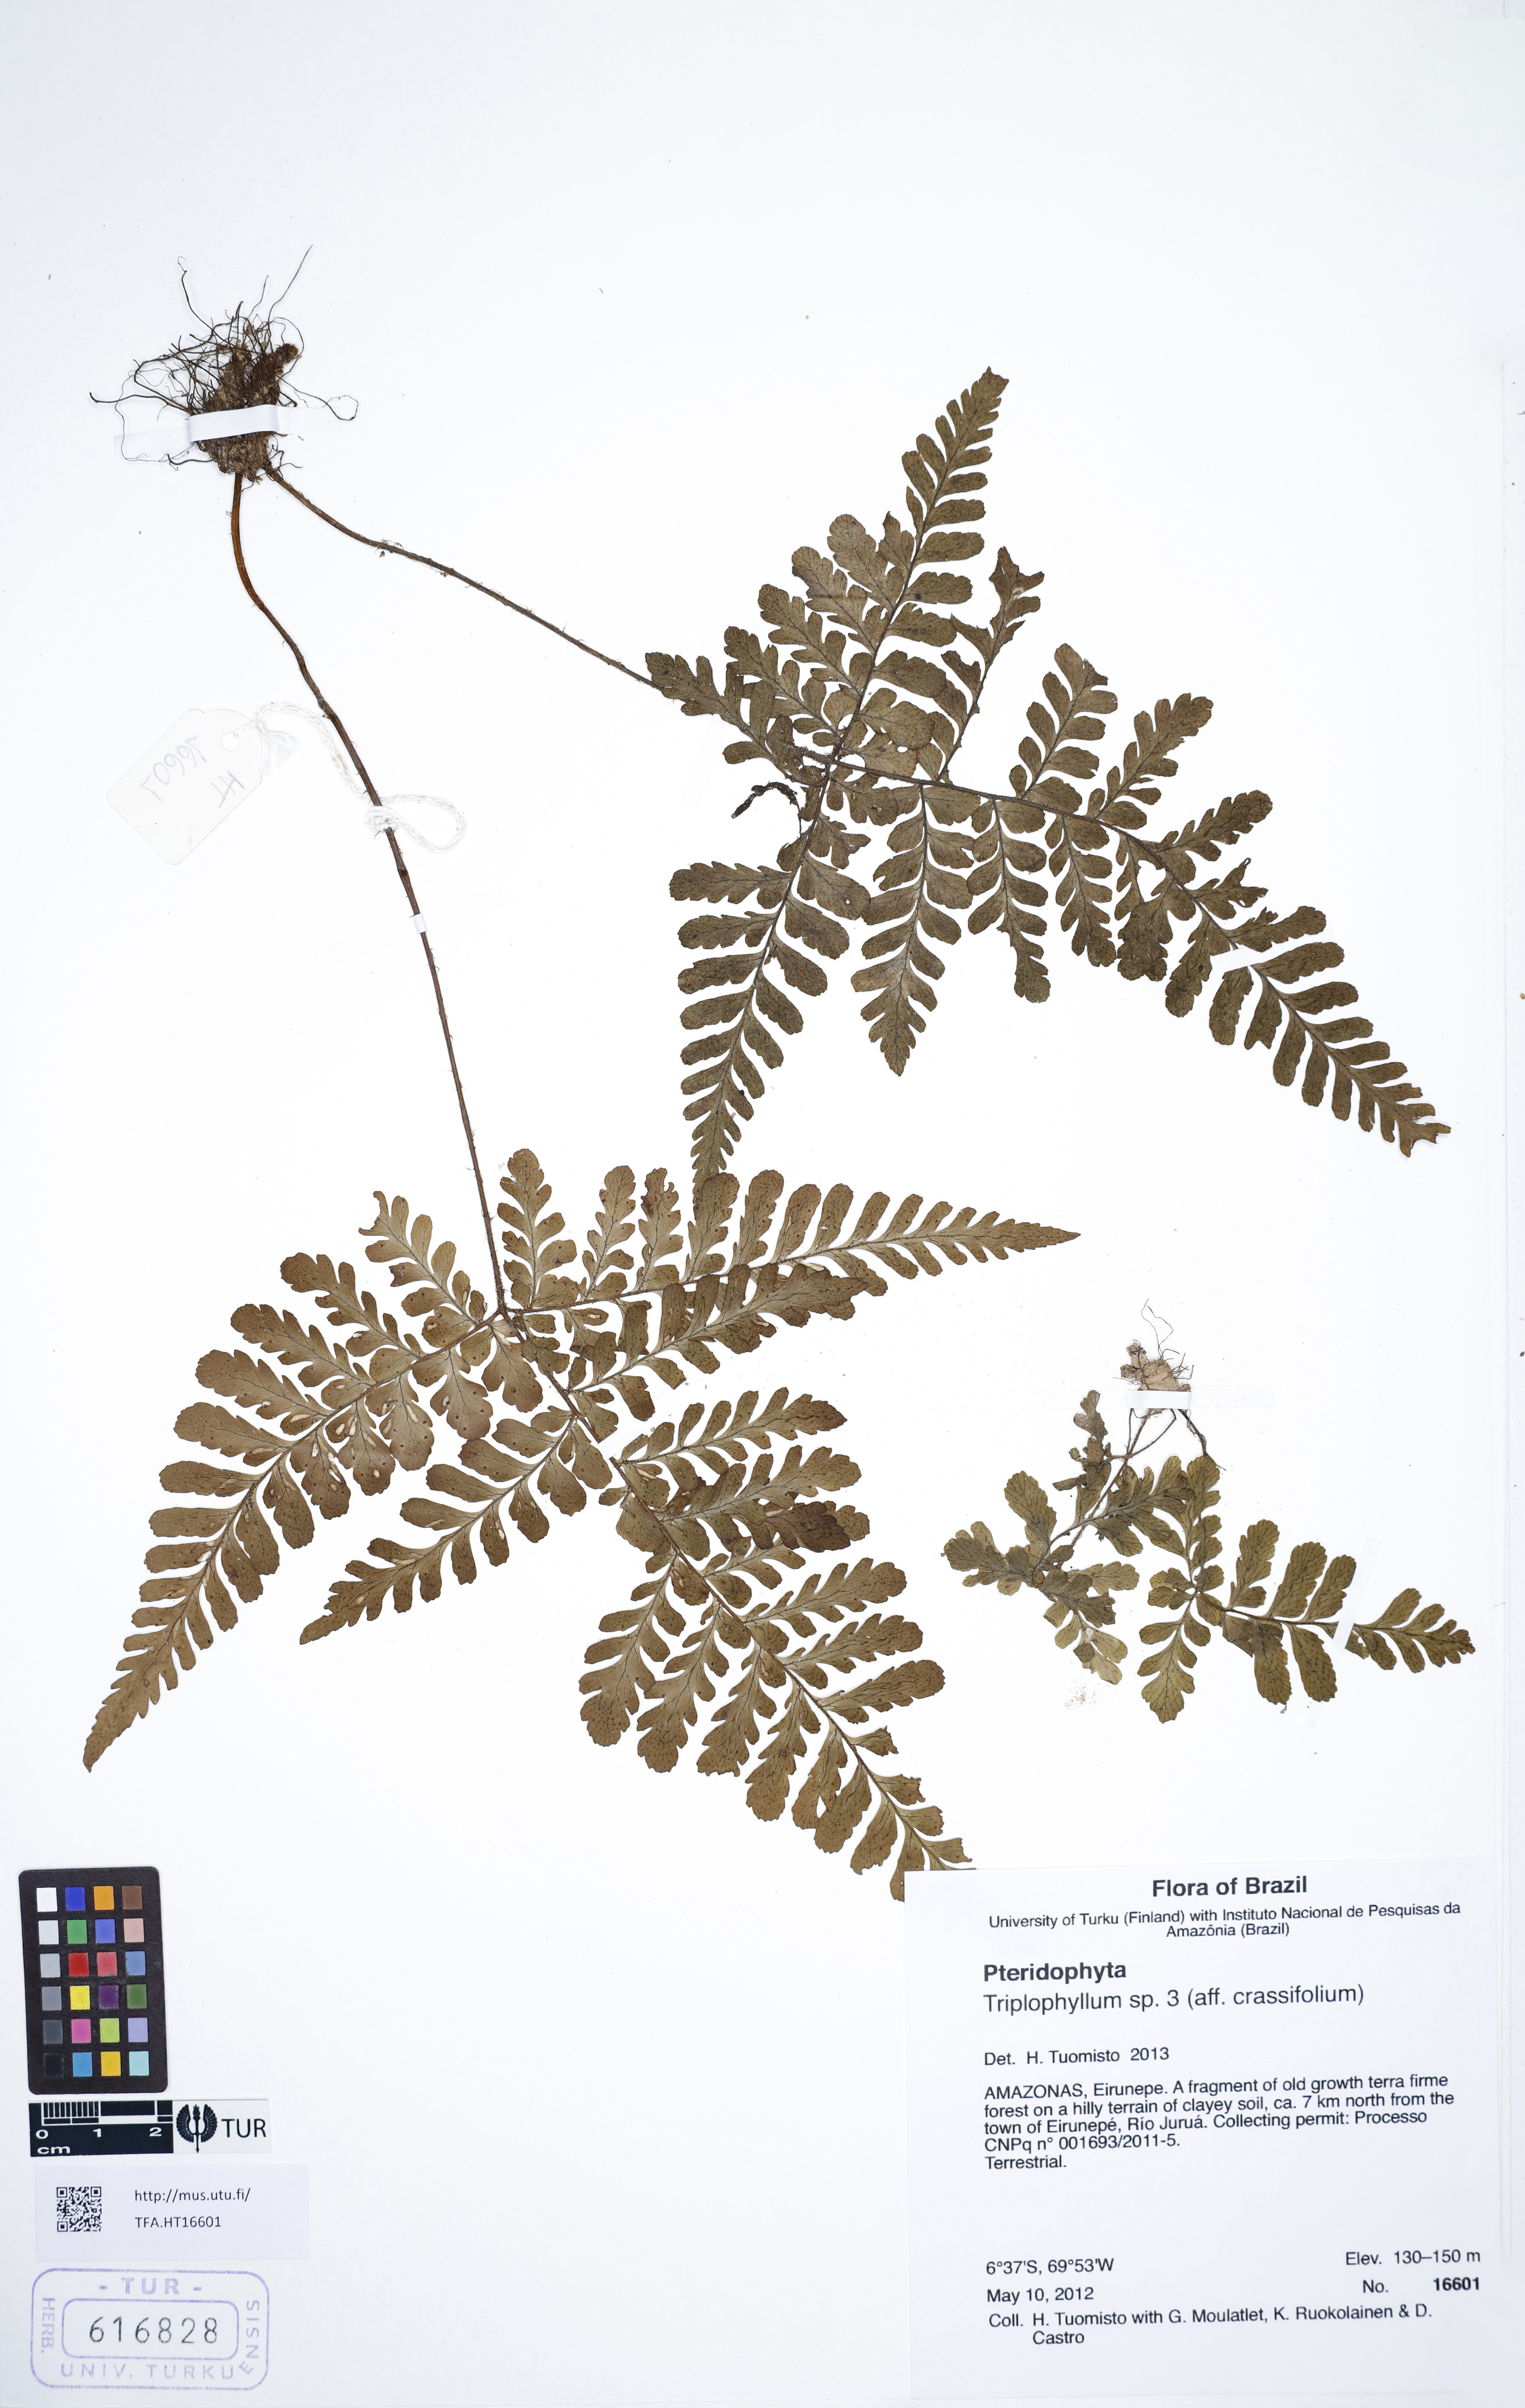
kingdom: Plantae
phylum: Tracheophyta
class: Polypodiopsida
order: Polypodiales
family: Tectariaceae
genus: Triplophyllum
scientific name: Triplophyllum
